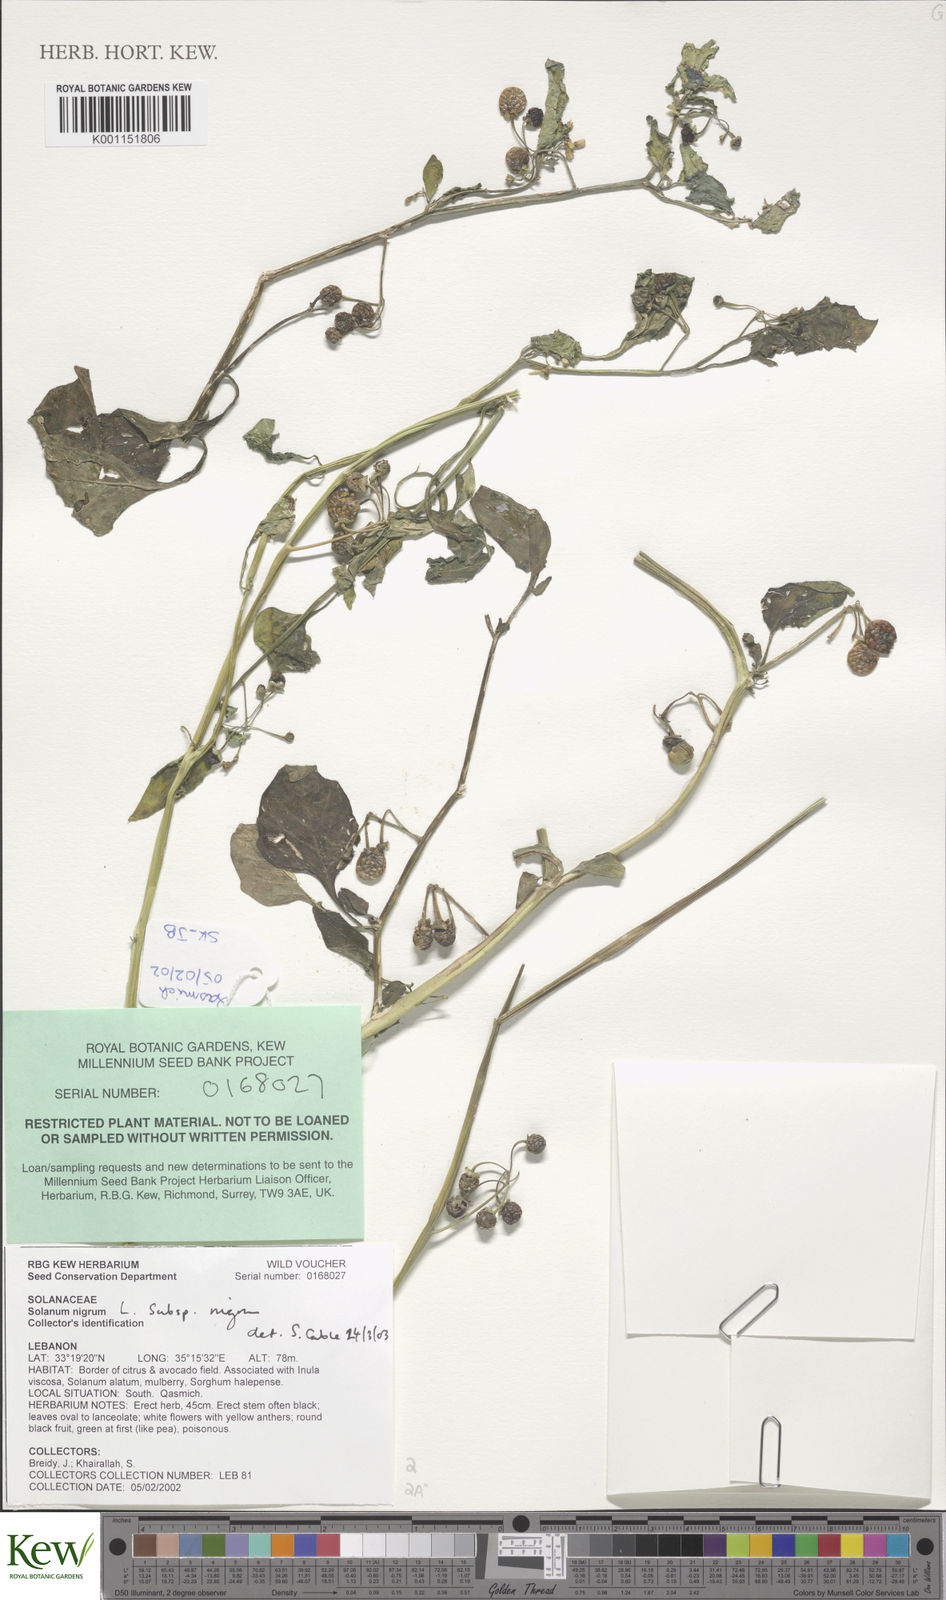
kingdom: Plantae
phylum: Tracheophyta
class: Magnoliopsida
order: Solanales
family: Solanaceae
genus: Solanum
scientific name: Solanum
